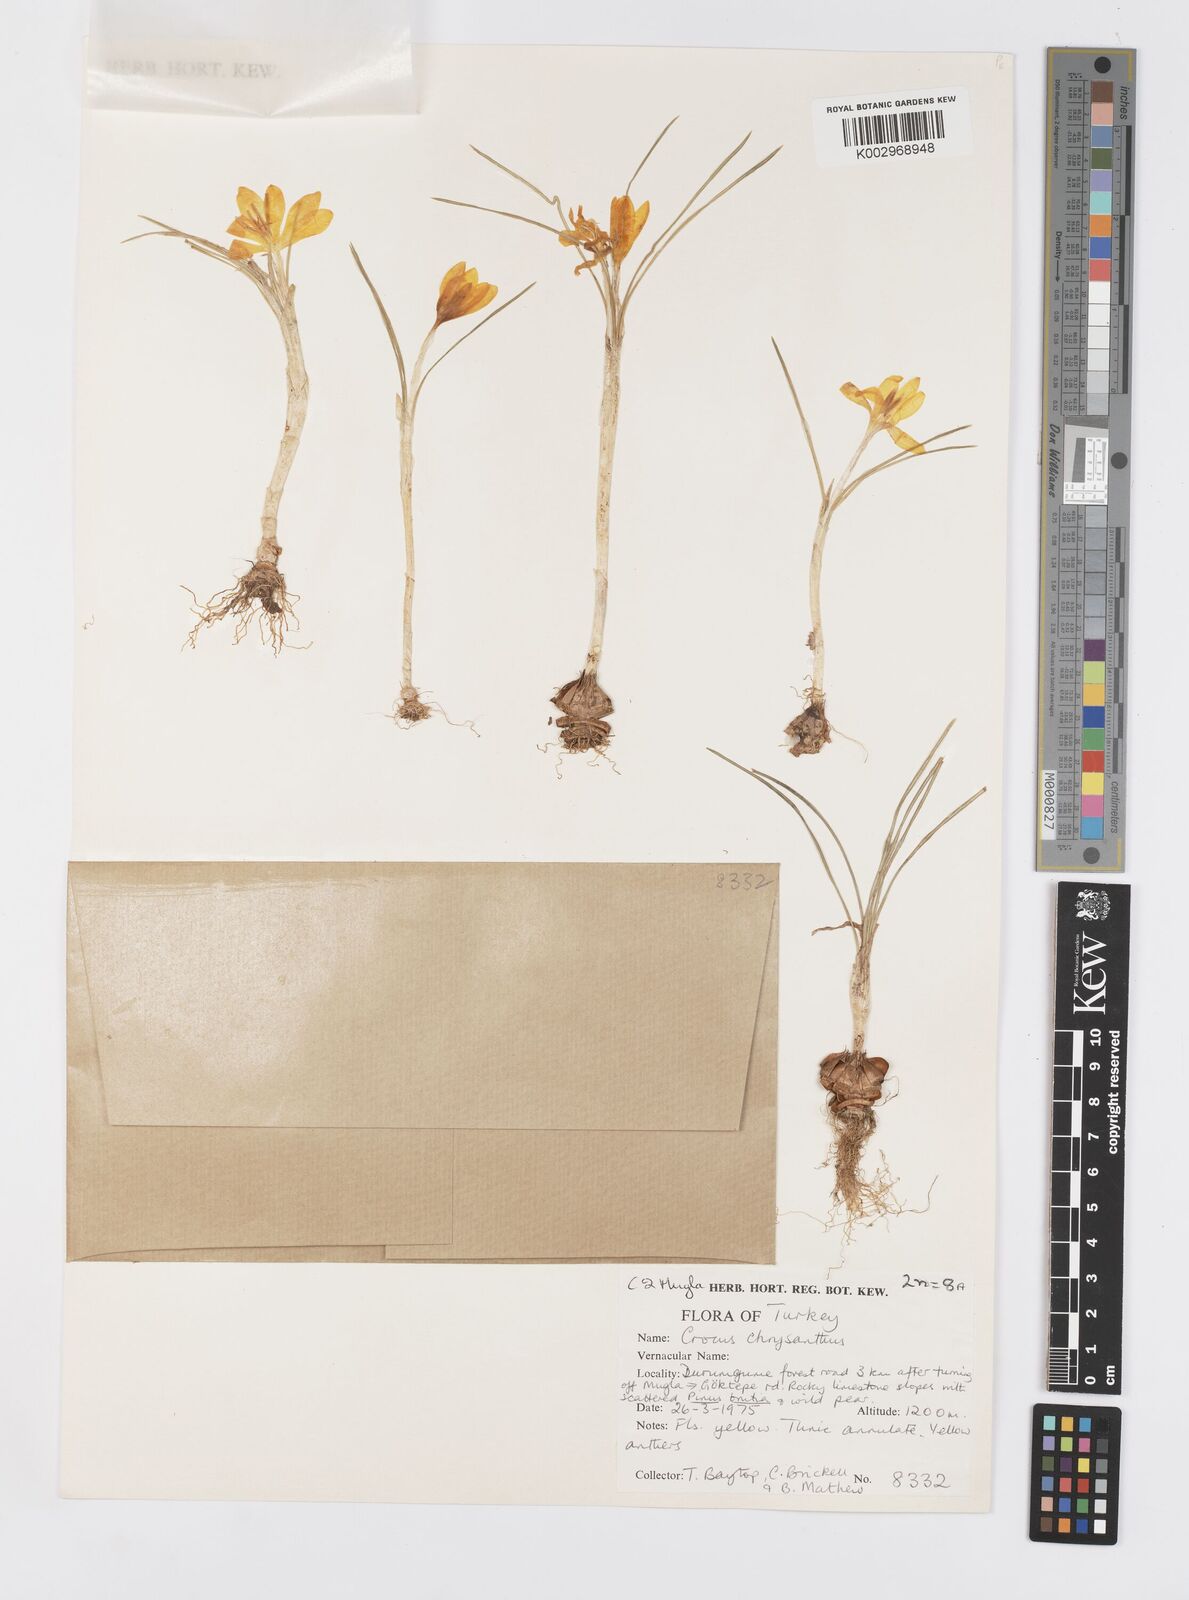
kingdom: Plantae
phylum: Tracheophyta
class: Liliopsida
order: Asparagales
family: Iridaceae
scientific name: Iridaceae
